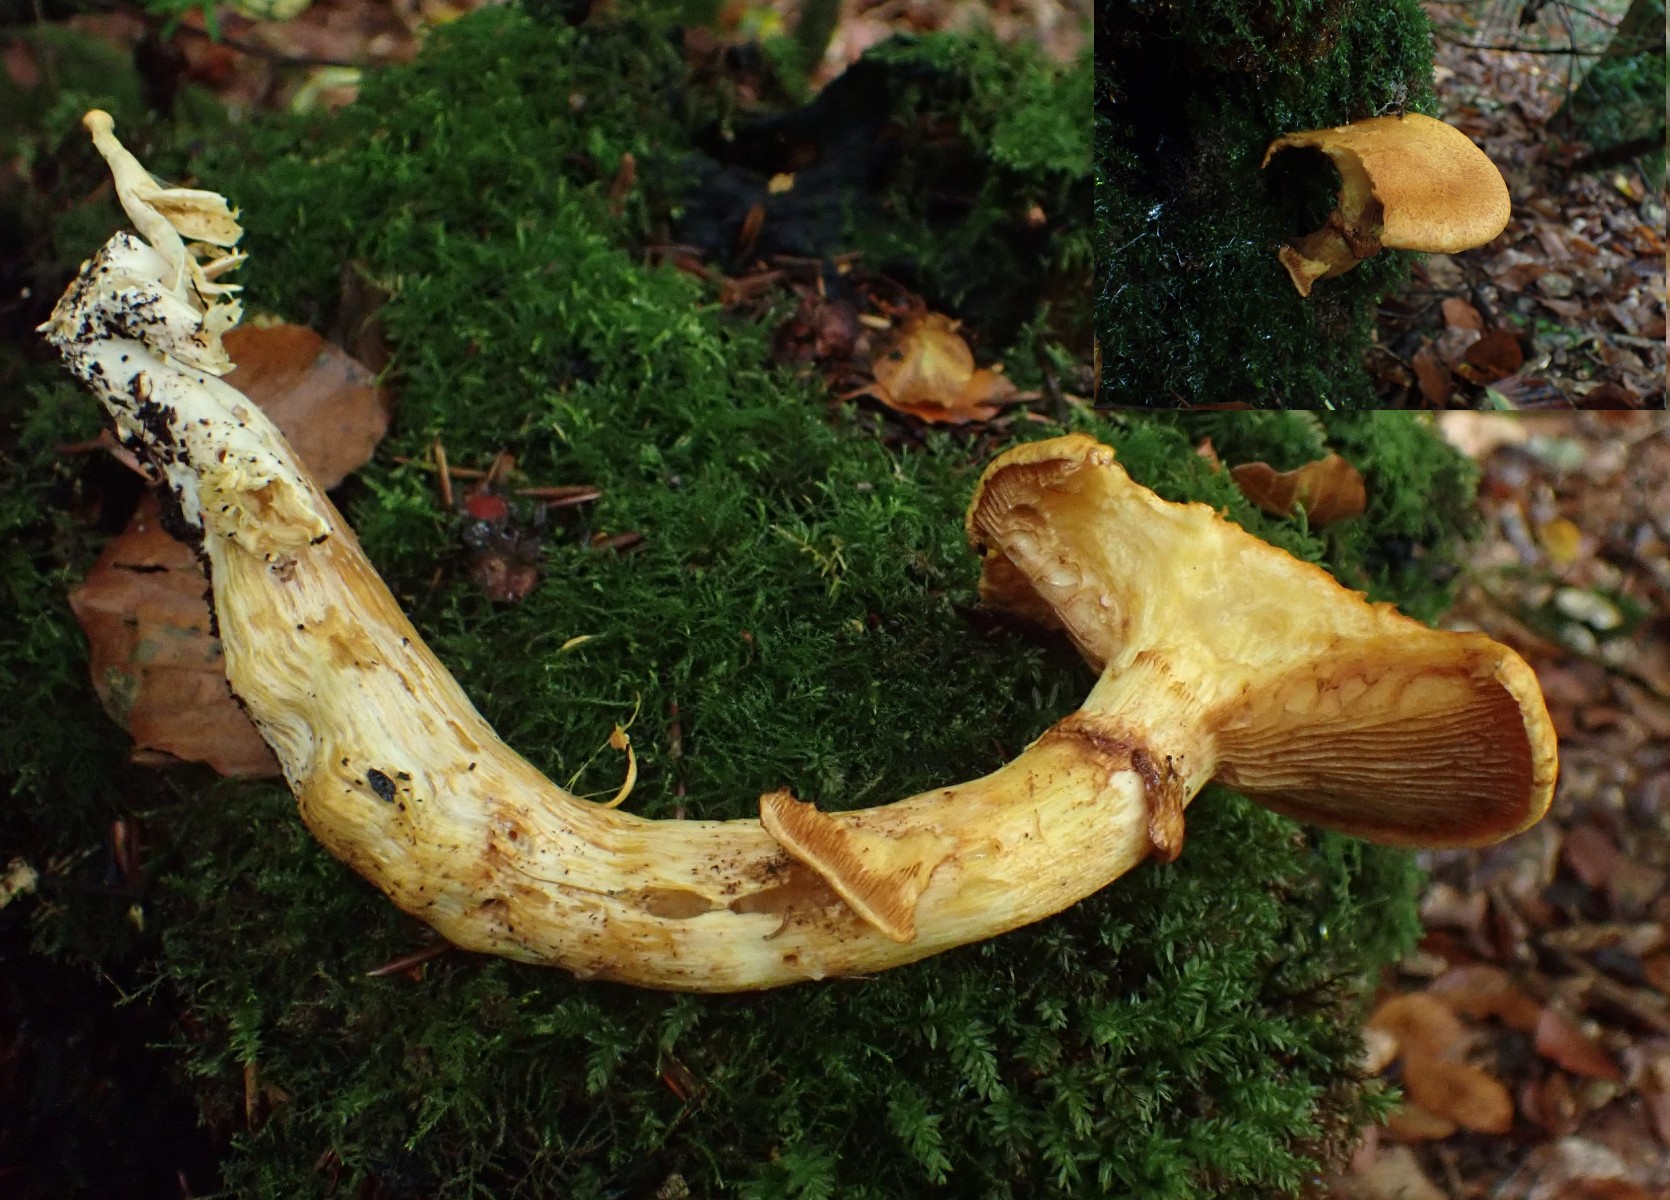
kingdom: Fungi
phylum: Basidiomycota
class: Agaricomycetes
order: Agaricales
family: Hymenogastraceae
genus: Gymnopilus
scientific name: Gymnopilus spectabilis
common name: fibret flammehat
